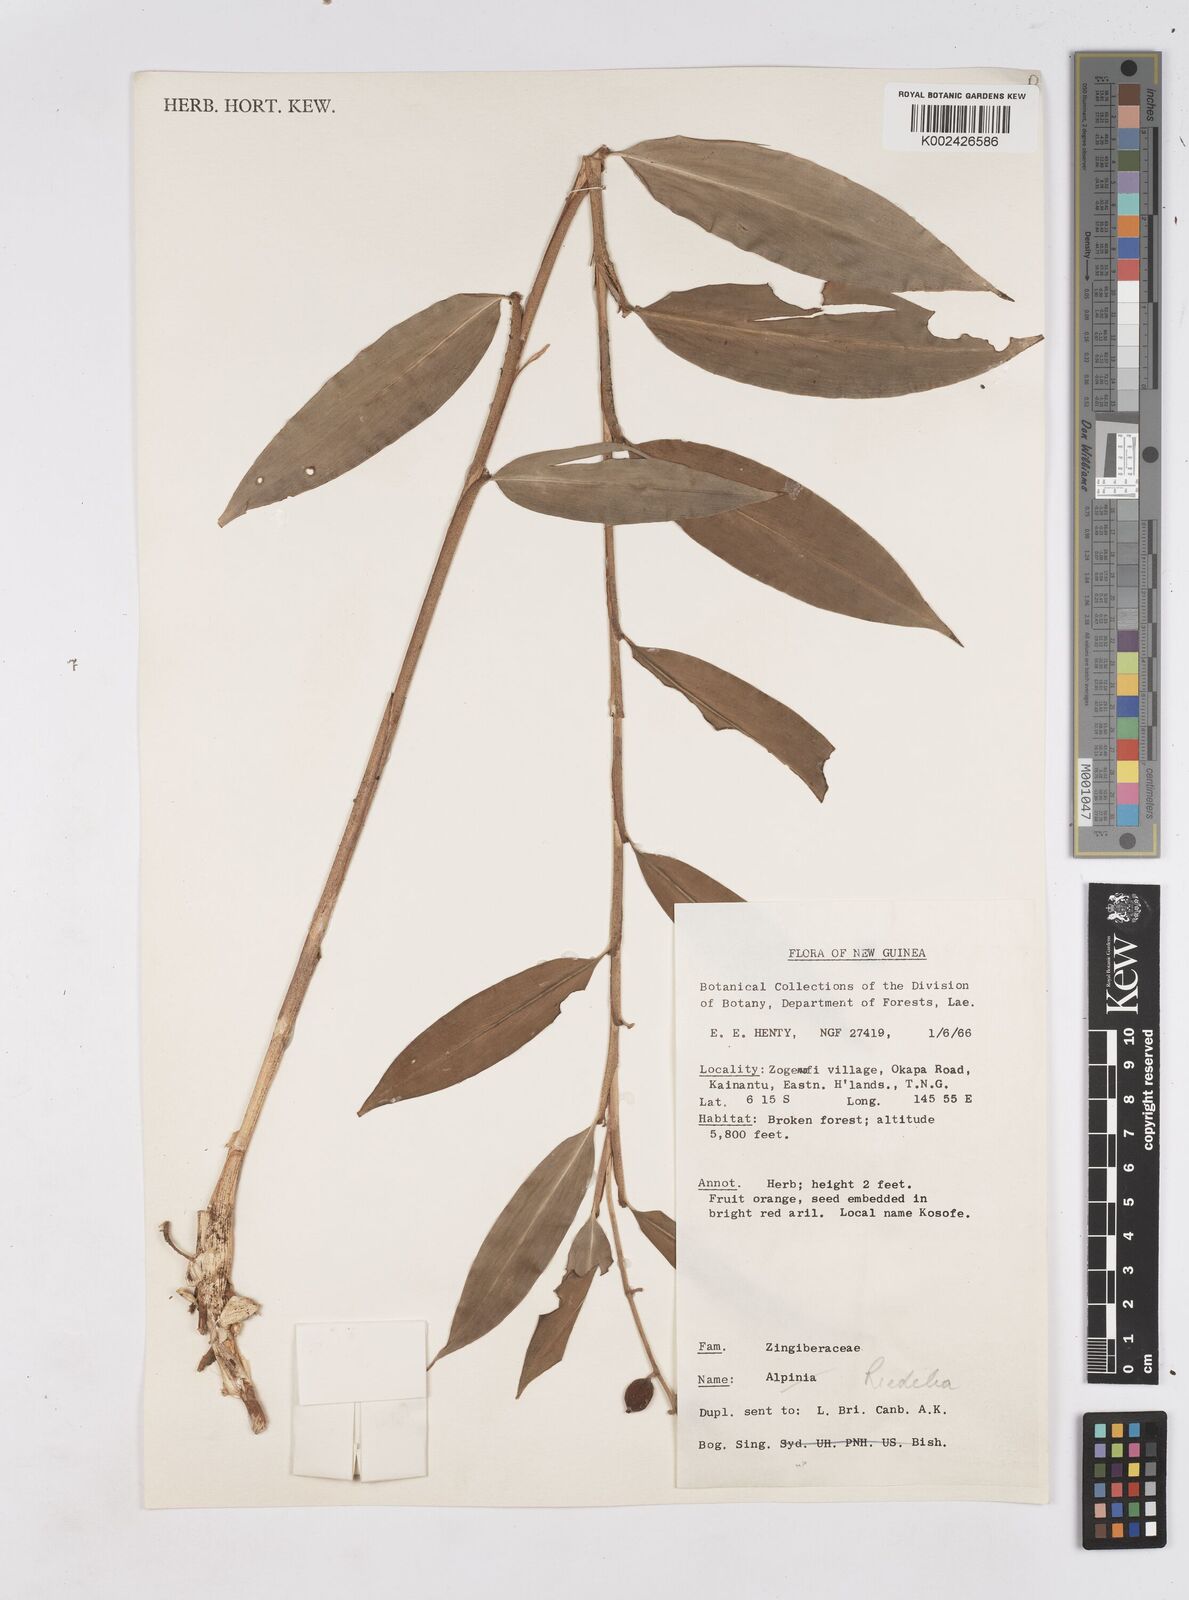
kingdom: Plantae
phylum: Tracheophyta
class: Liliopsida
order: Zingiberales
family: Zingiberaceae
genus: Riedelia
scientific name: Riedelia
